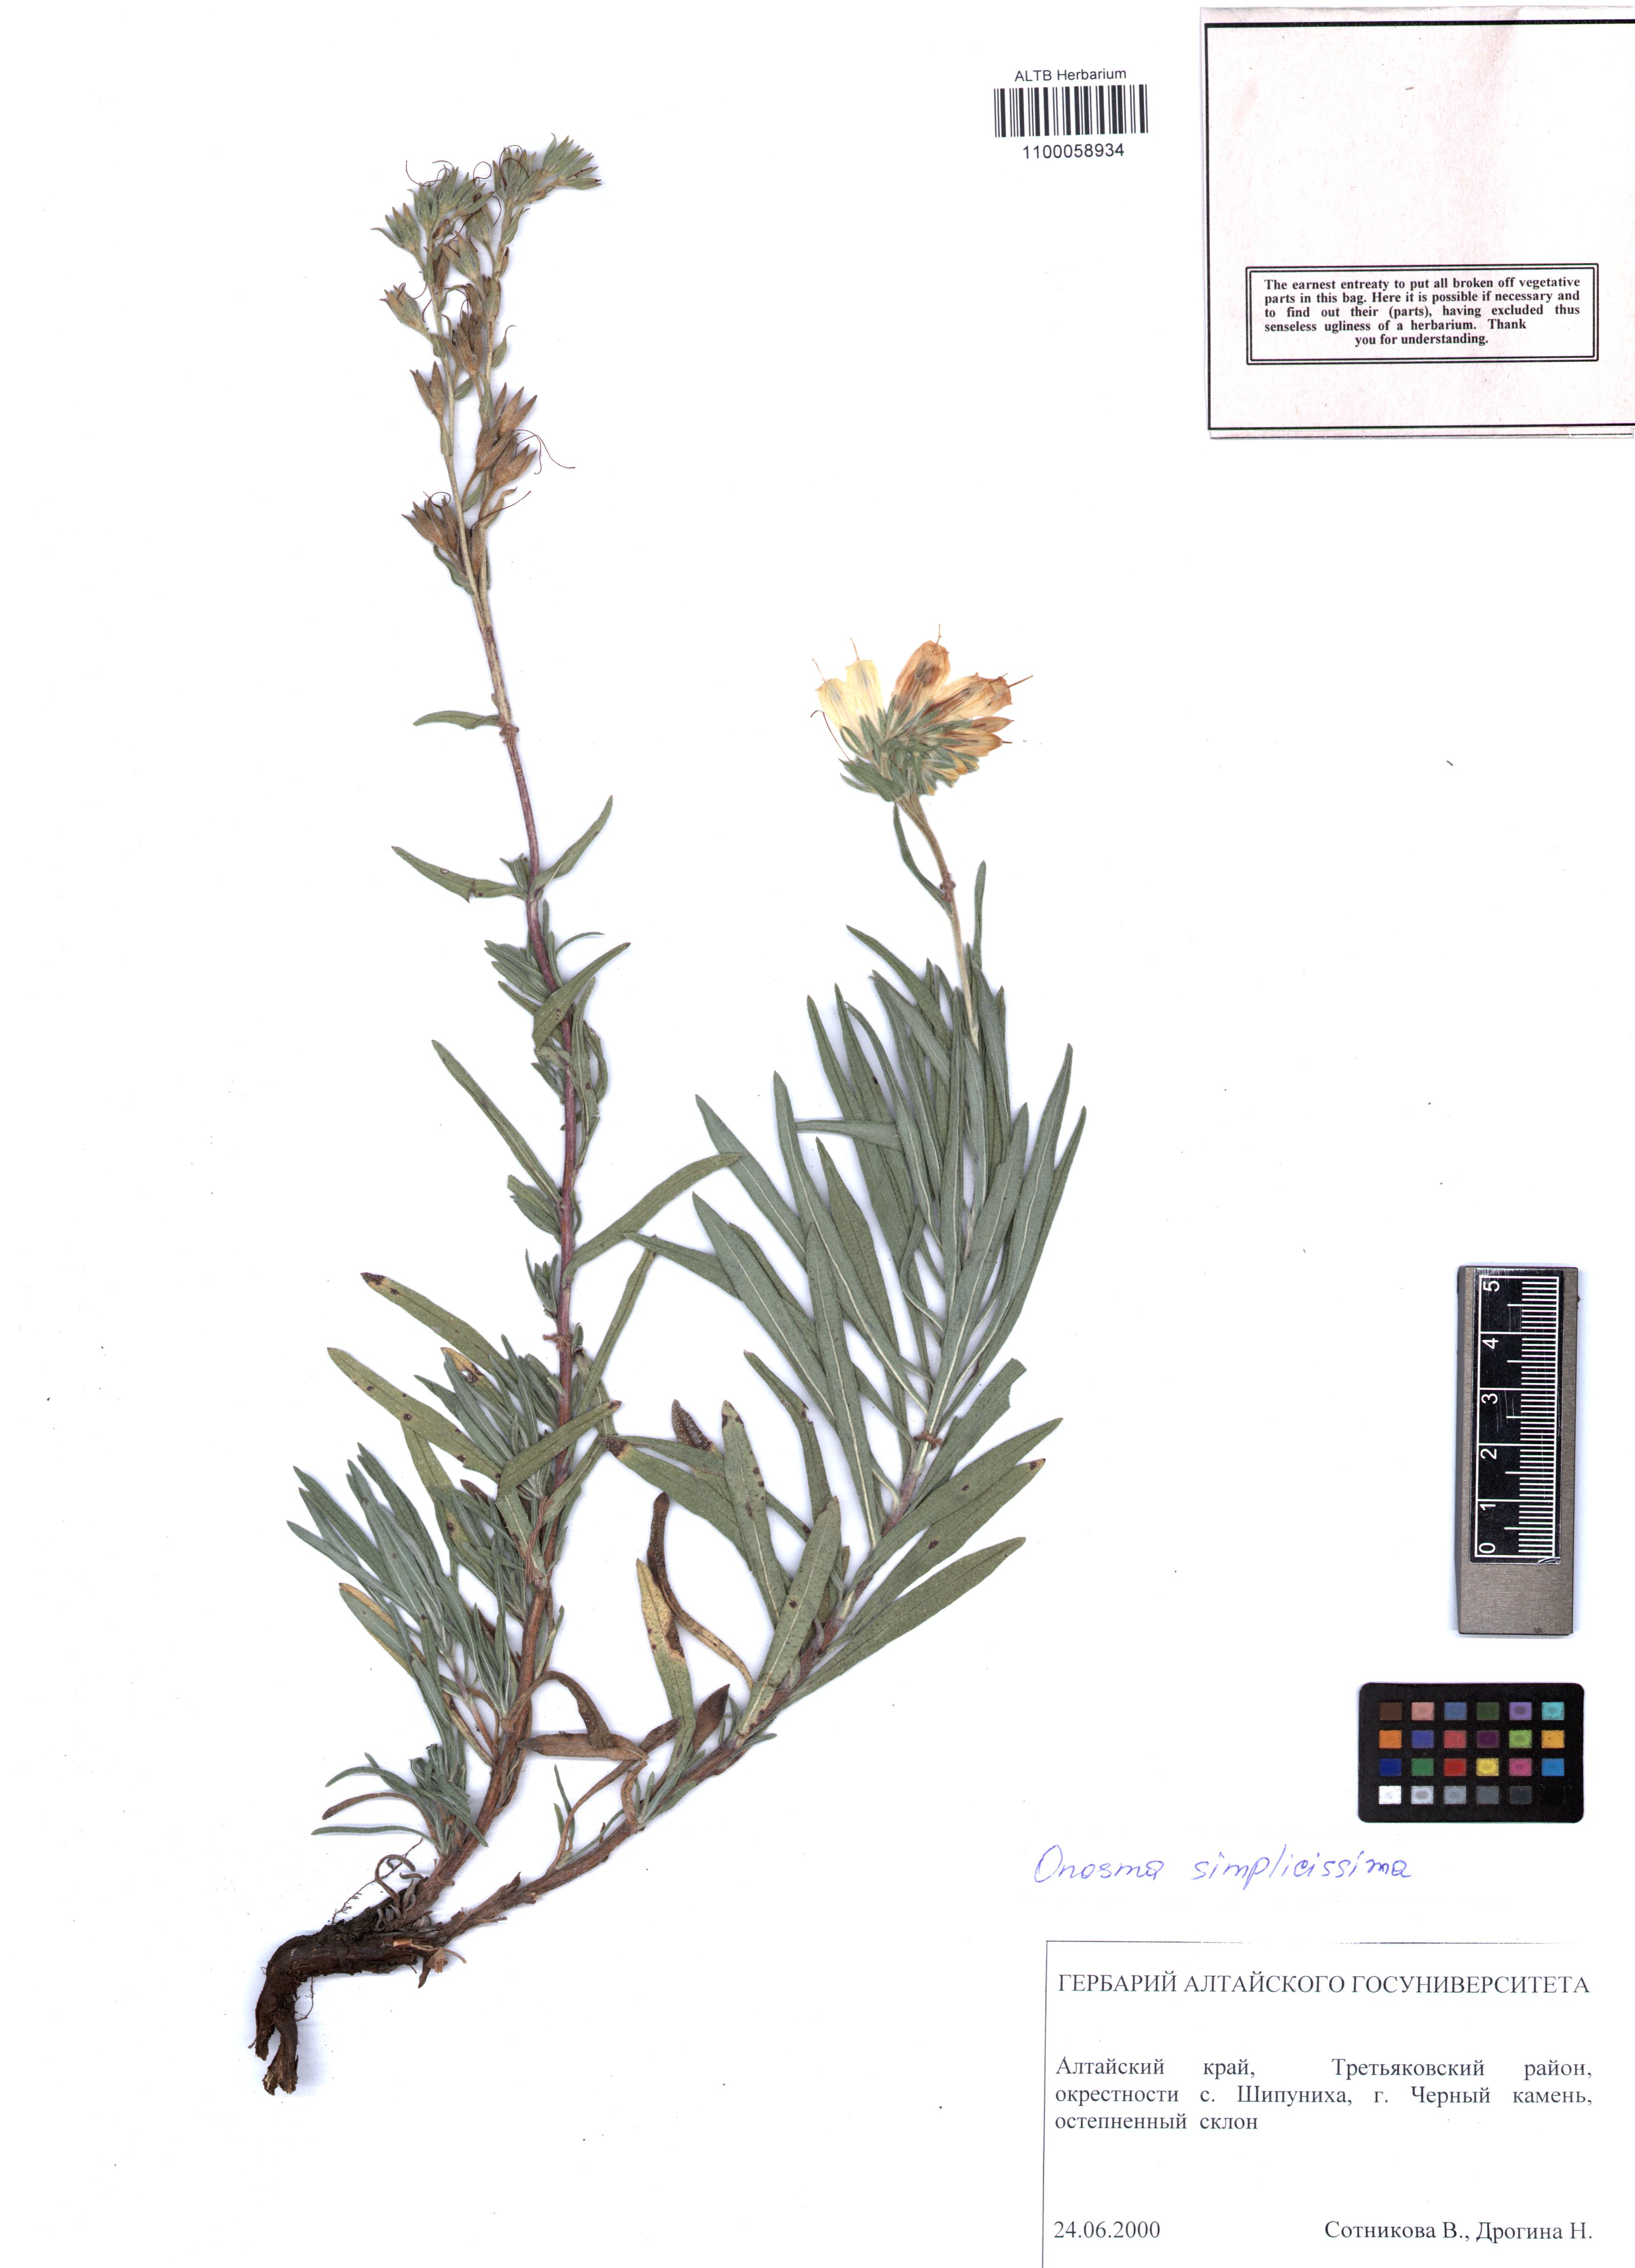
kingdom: Plantae
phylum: Tracheophyta
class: Magnoliopsida
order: Boraginales
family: Boraginaceae
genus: Onosma
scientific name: Onosma simplicissima
